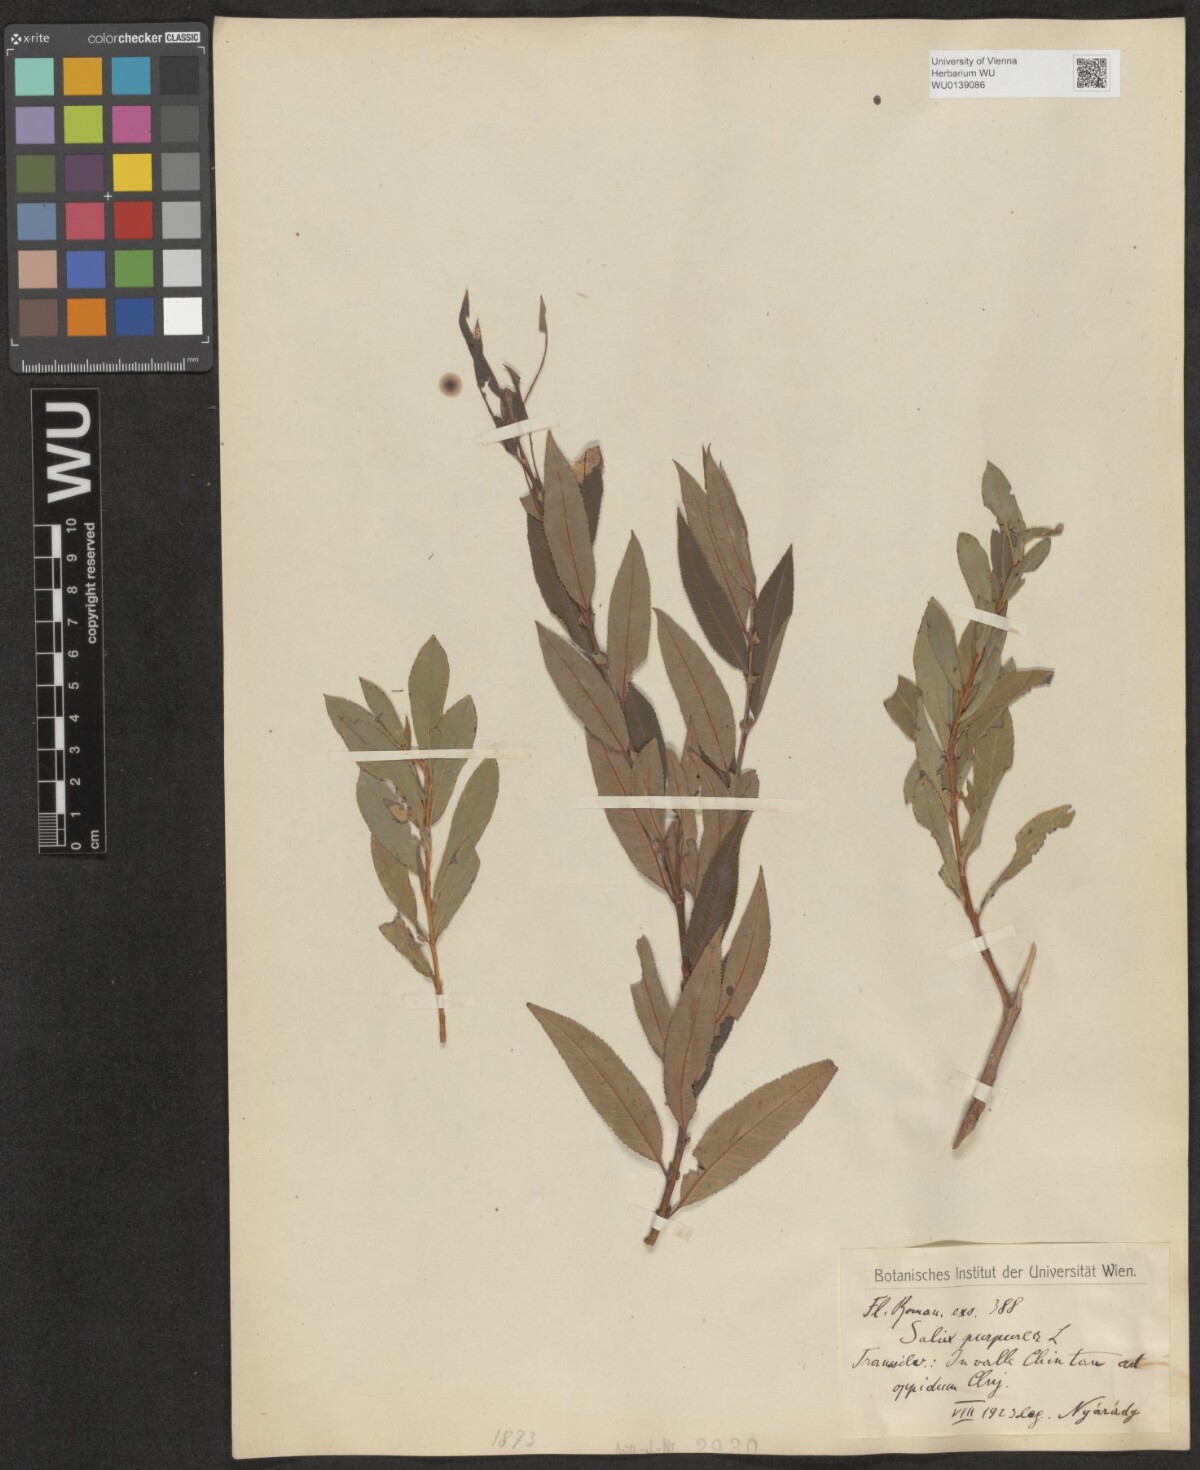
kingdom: Plantae
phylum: Tracheophyta
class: Magnoliopsida
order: Malpighiales
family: Salicaceae
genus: Salix
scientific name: Salix purpurea
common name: Purple willow
